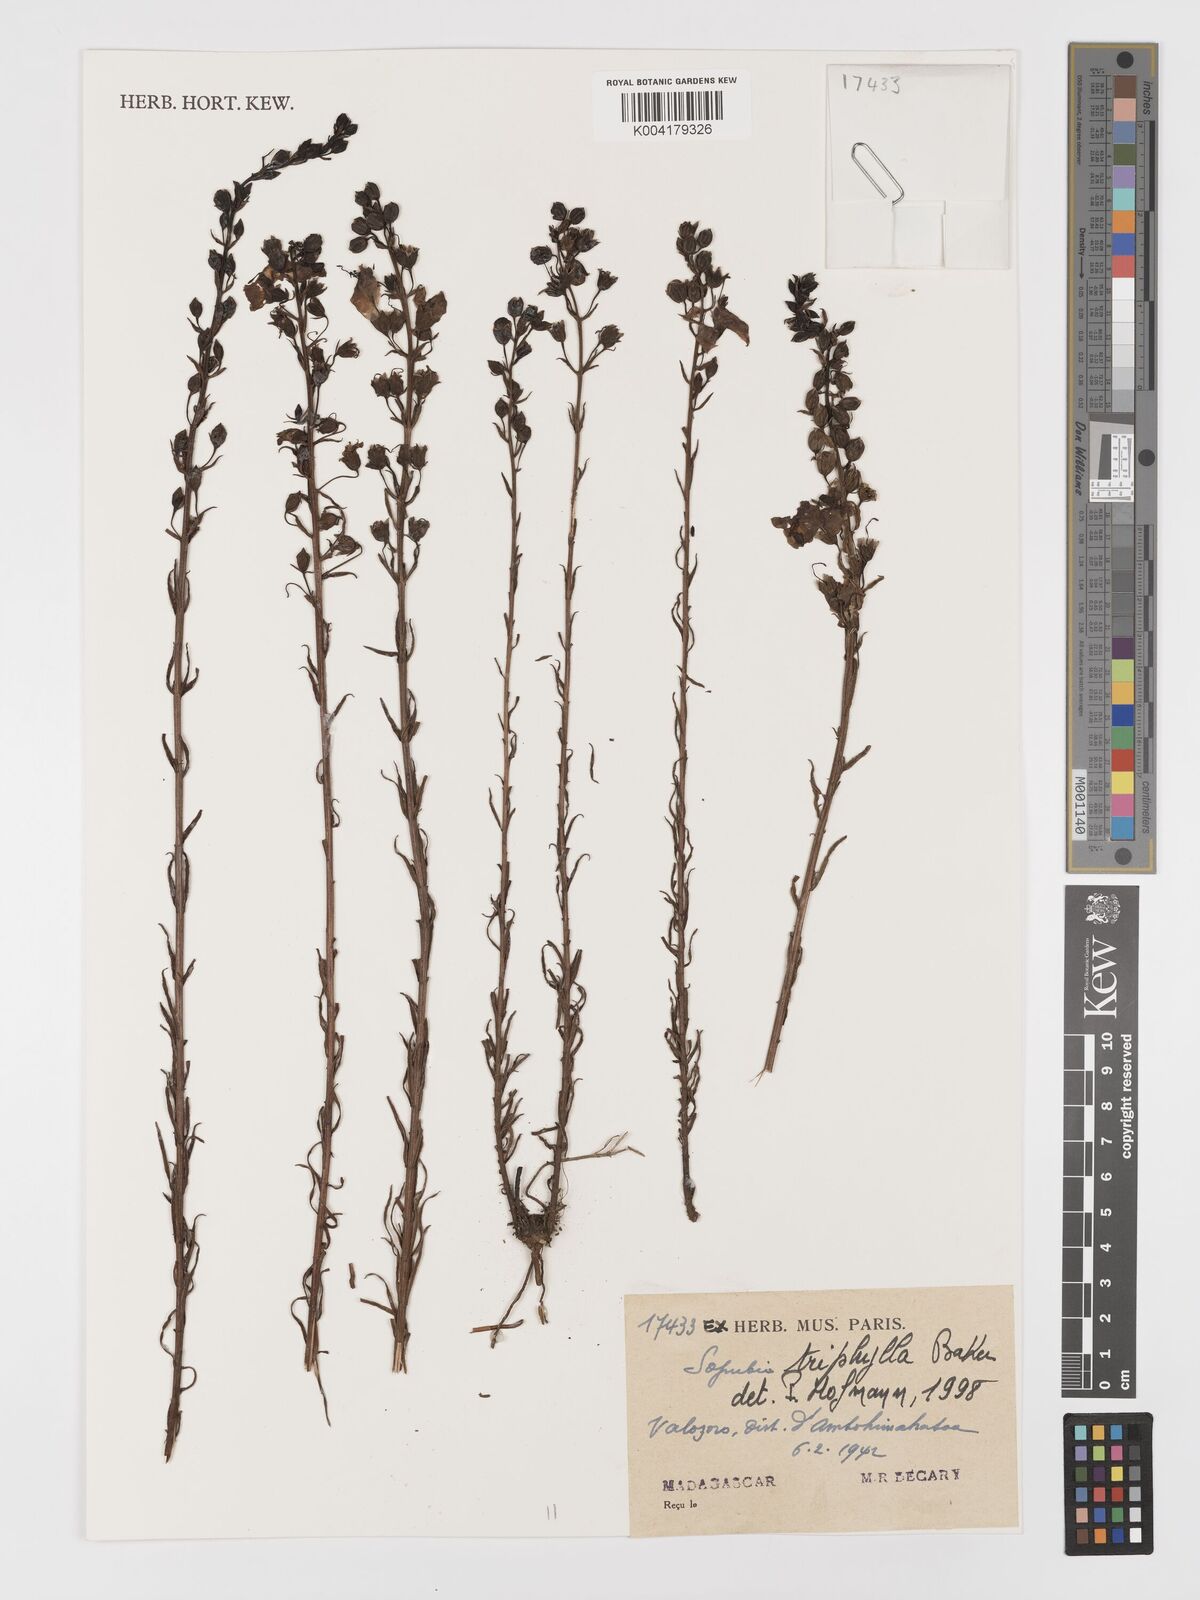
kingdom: Plantae
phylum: Tracheophyta
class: Magnoliopsida
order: Lamiales
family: Orobanchaceae
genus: Sopubia
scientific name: Sopubia triphylla
